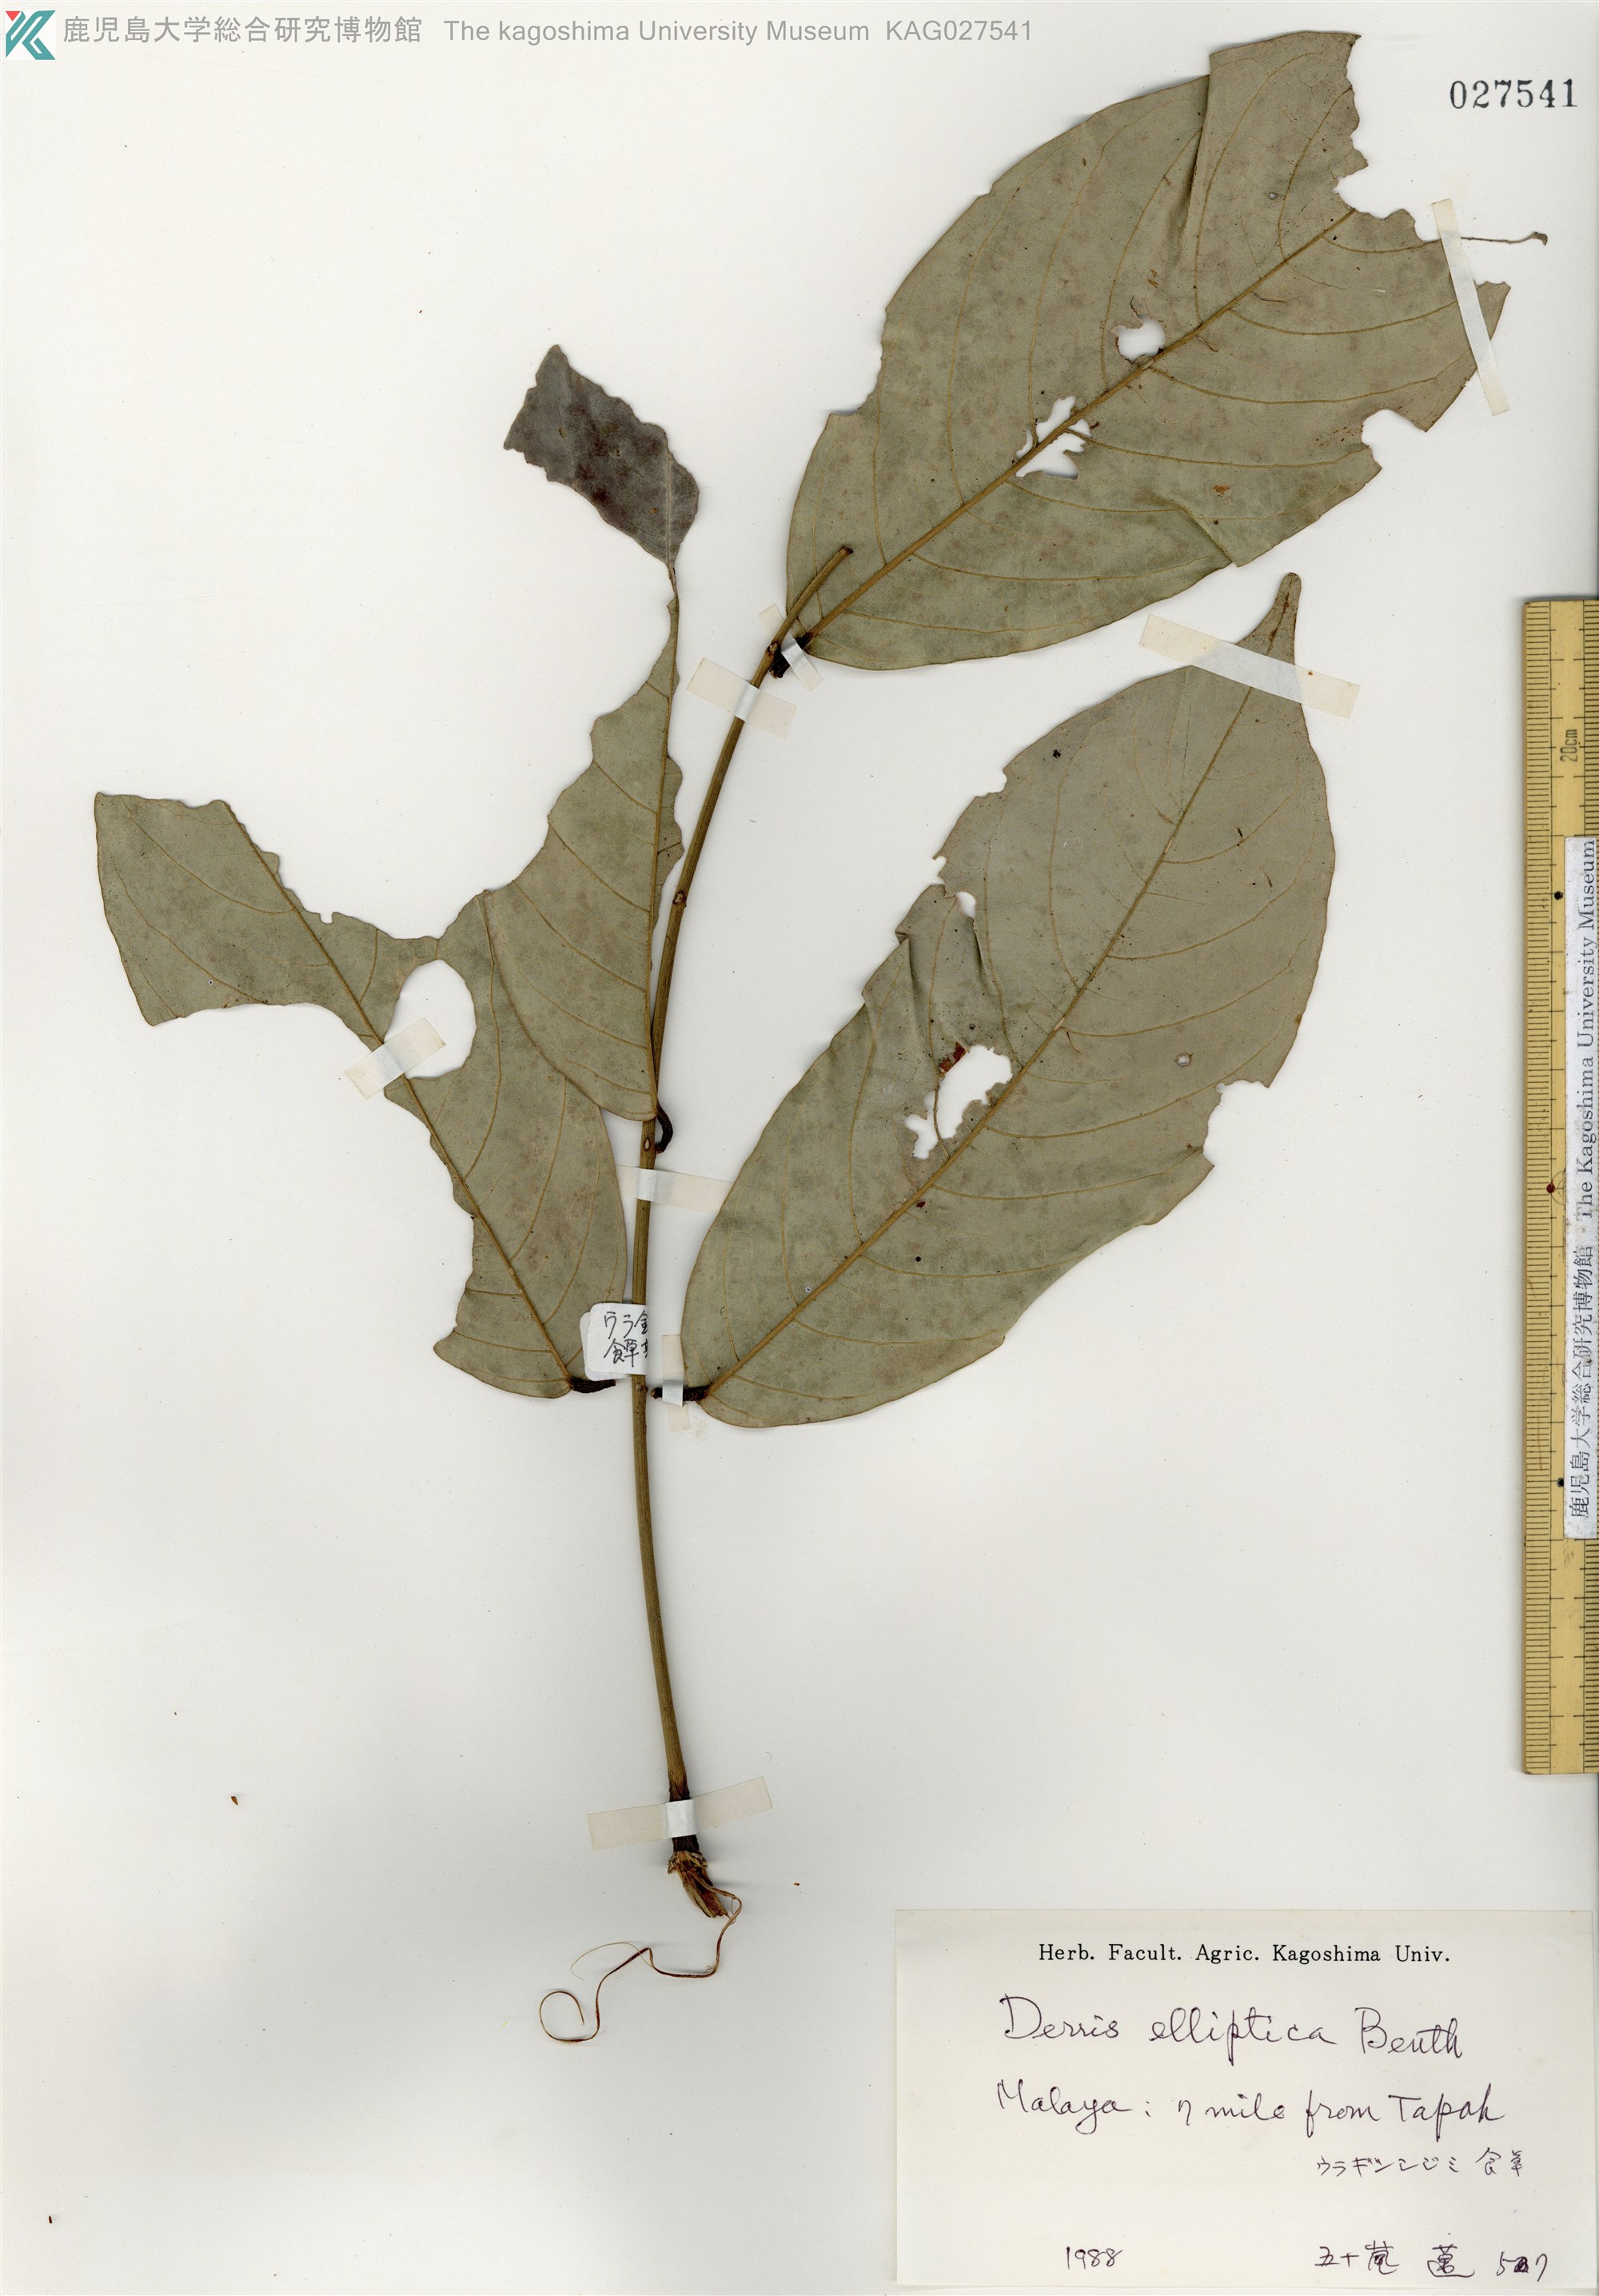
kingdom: Plantae
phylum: Tracheophyta
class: Magnoliopsida
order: Fabales
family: Fabaceae
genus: Derris
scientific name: Derris elliptica
